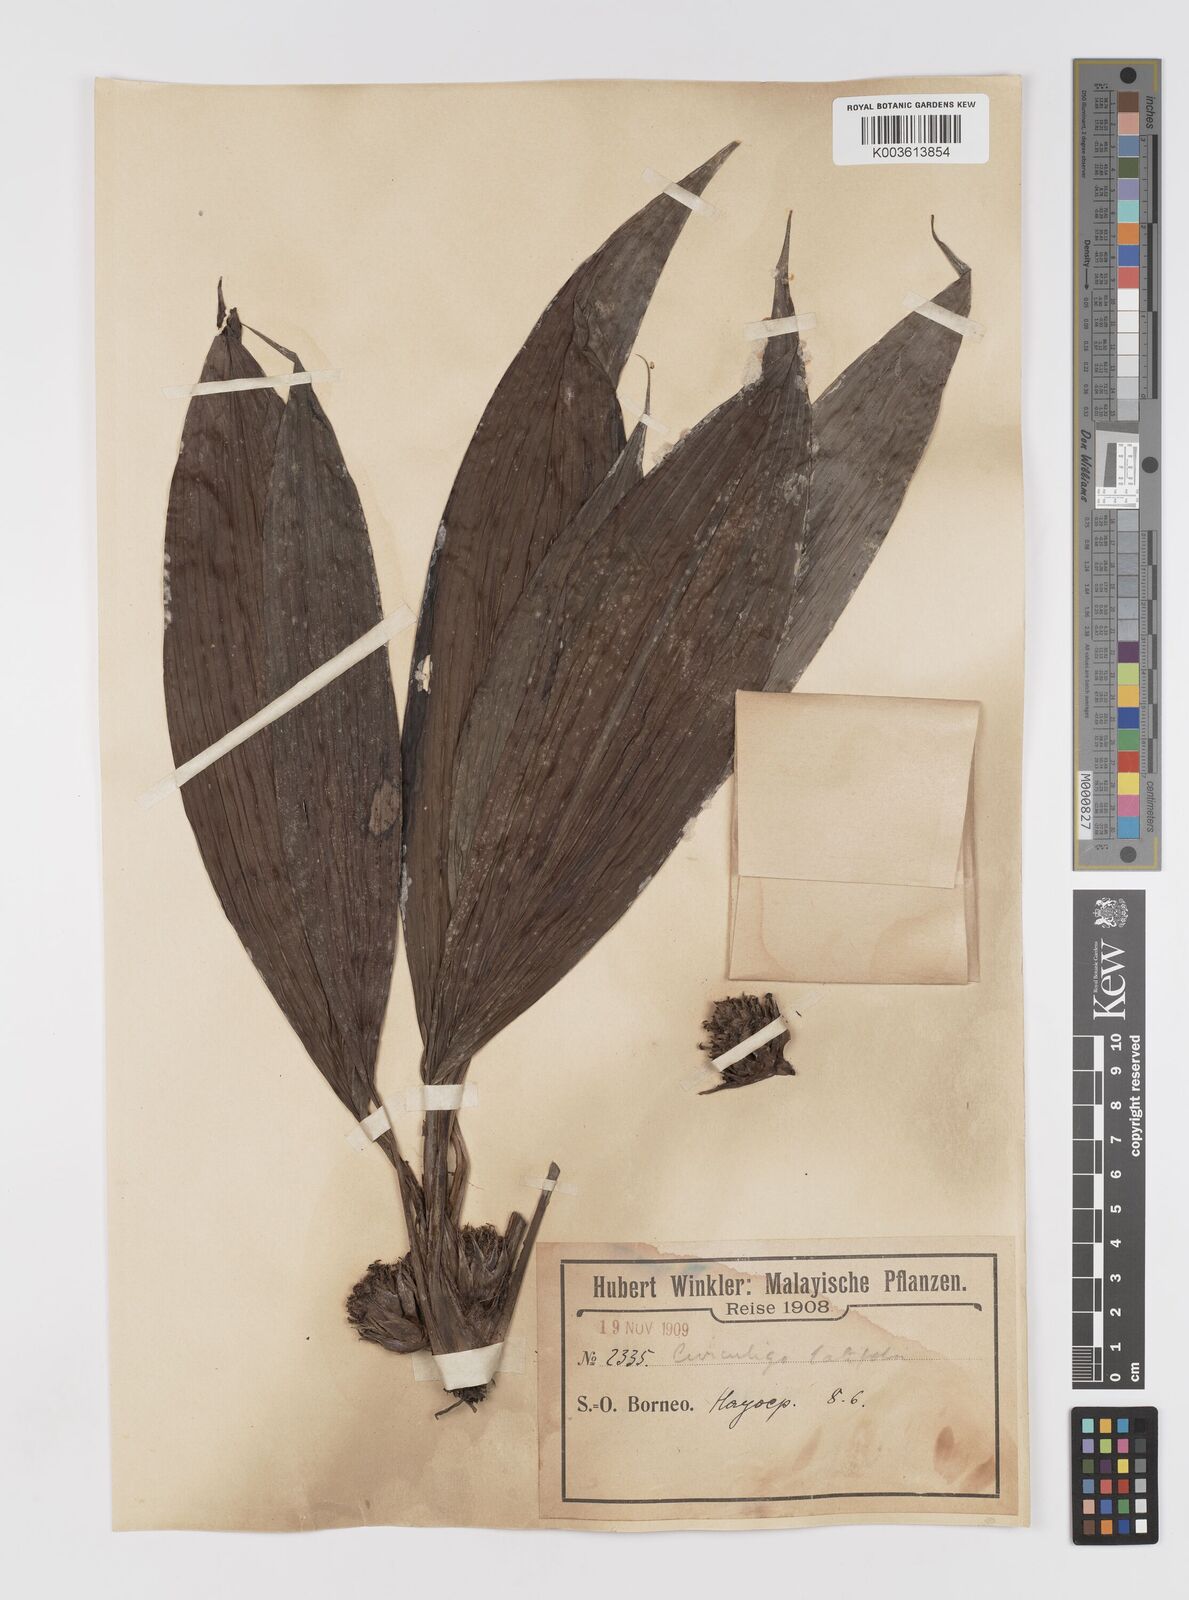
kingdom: Plantae
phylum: Tracheophyta
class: Liliopsida
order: Asparagales
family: Hypoxidaceae
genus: Curculigo
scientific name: Curculigo latifolia
